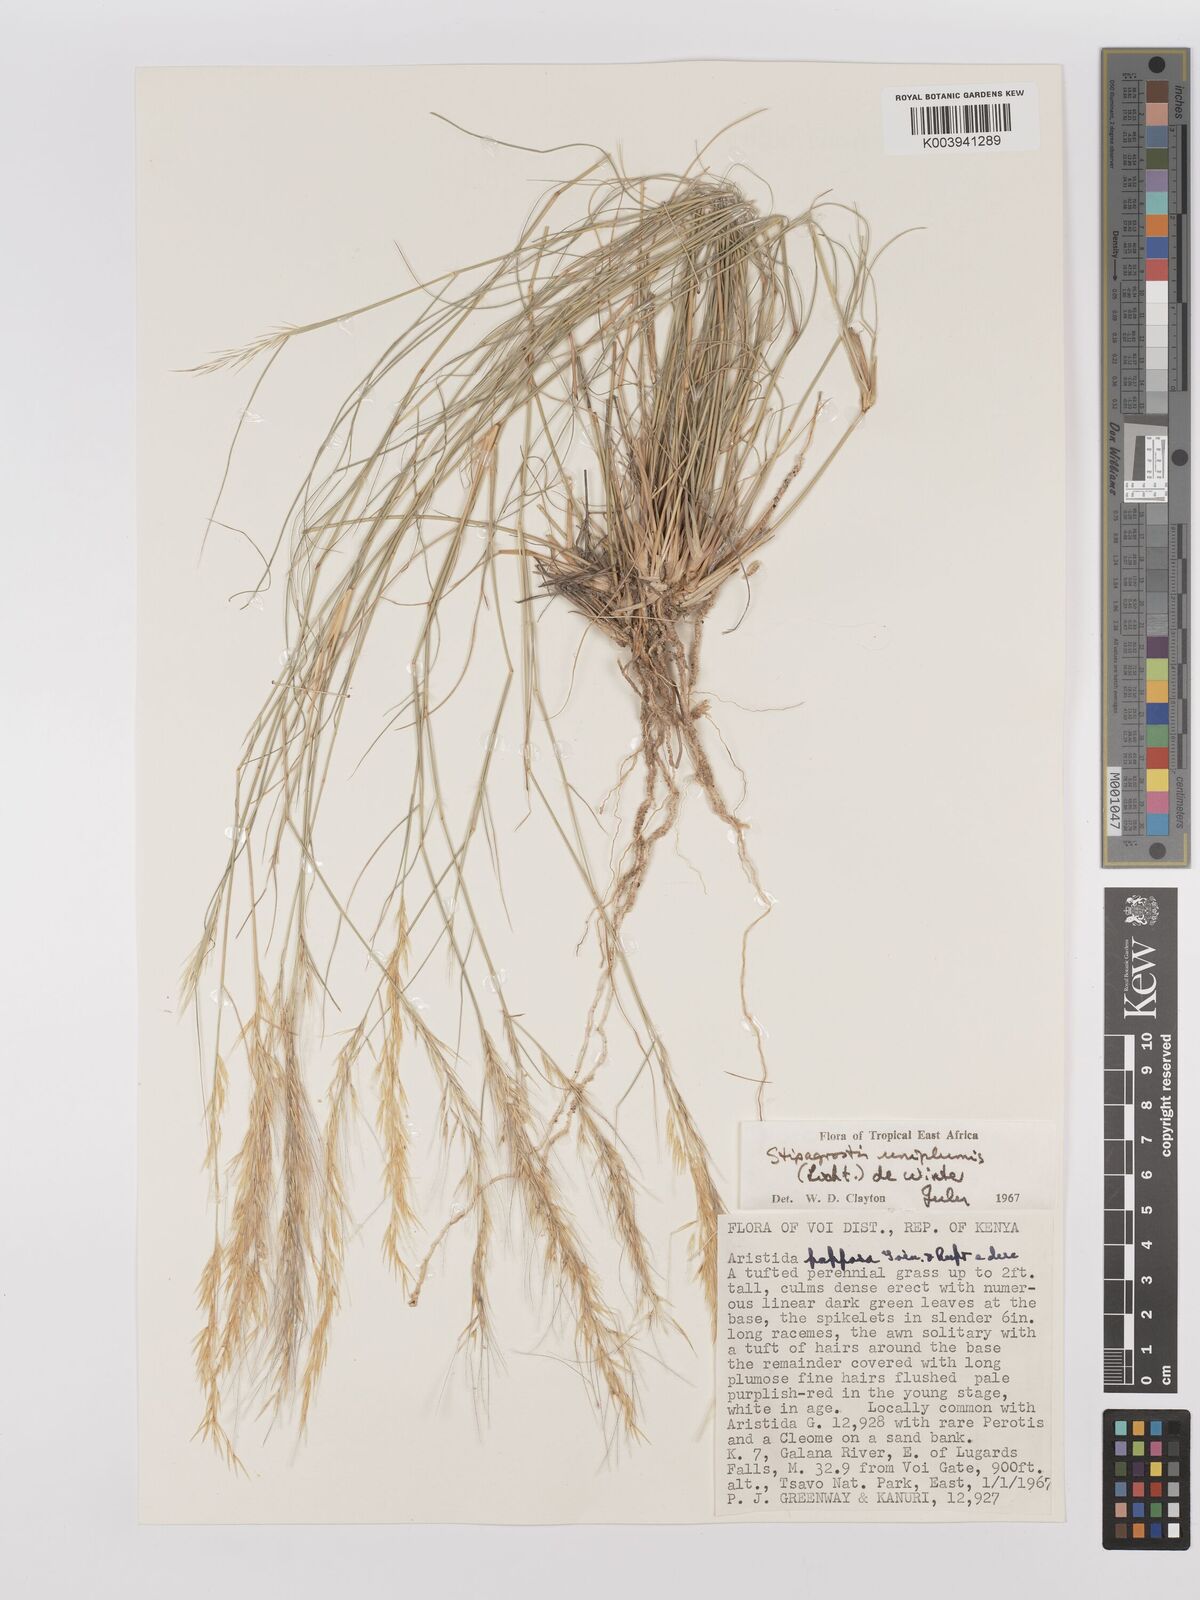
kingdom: Plantae
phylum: Tracheophyta
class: Liliopsida
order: Poales
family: Poaceae
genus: Stipagrostis
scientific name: Stipagrostis uniplumis
